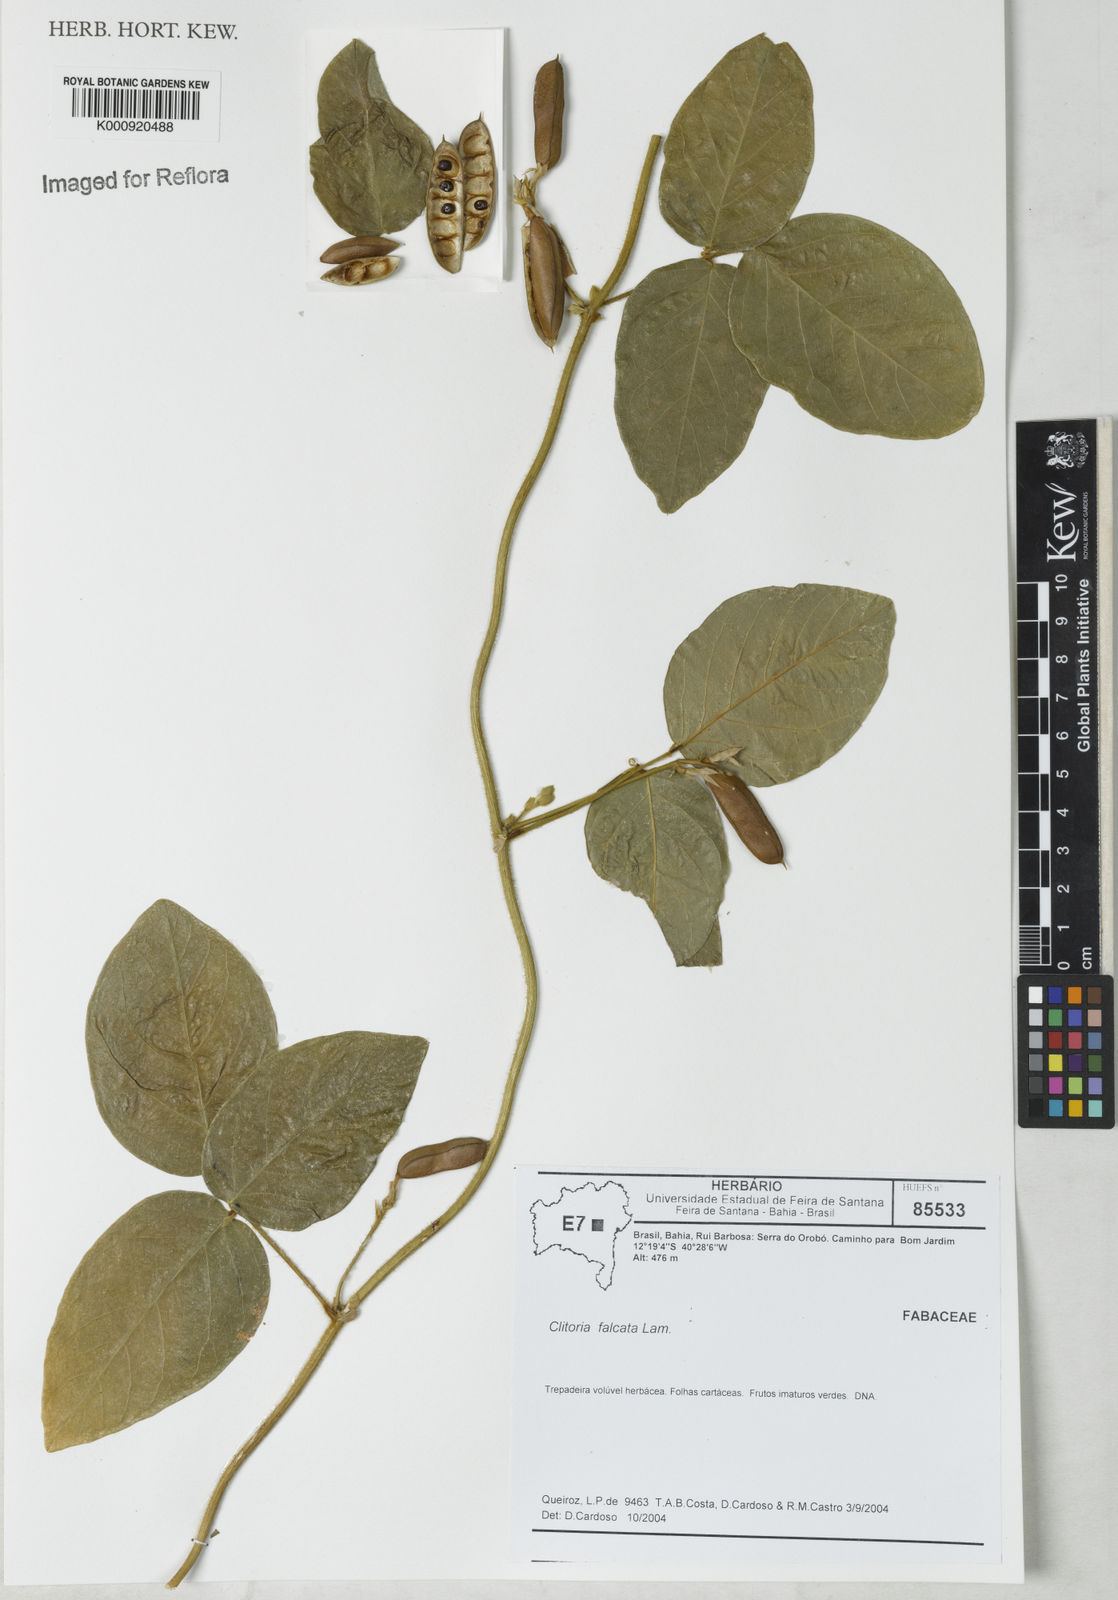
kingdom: Plantae
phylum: Tracheophyta
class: Magnoliopsida
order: Fabales
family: Fabaceae
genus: Clitoria
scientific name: Clitoria falcata
